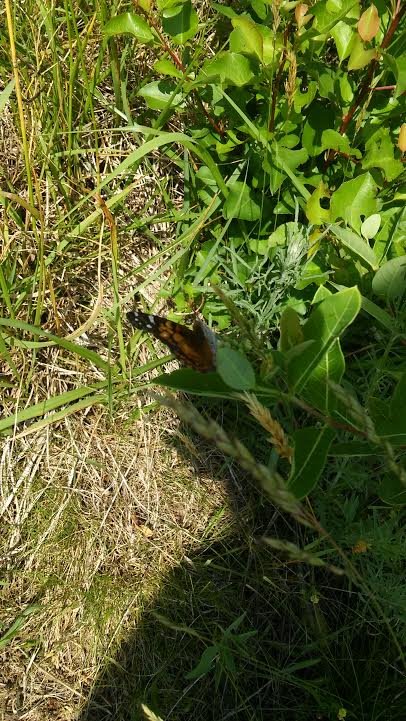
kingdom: Animalia
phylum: Arthropoda
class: Insecta
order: Lepidoptera
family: Nymphalidae
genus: Vanessa
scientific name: Vanessa virginiensis
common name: American Lady
